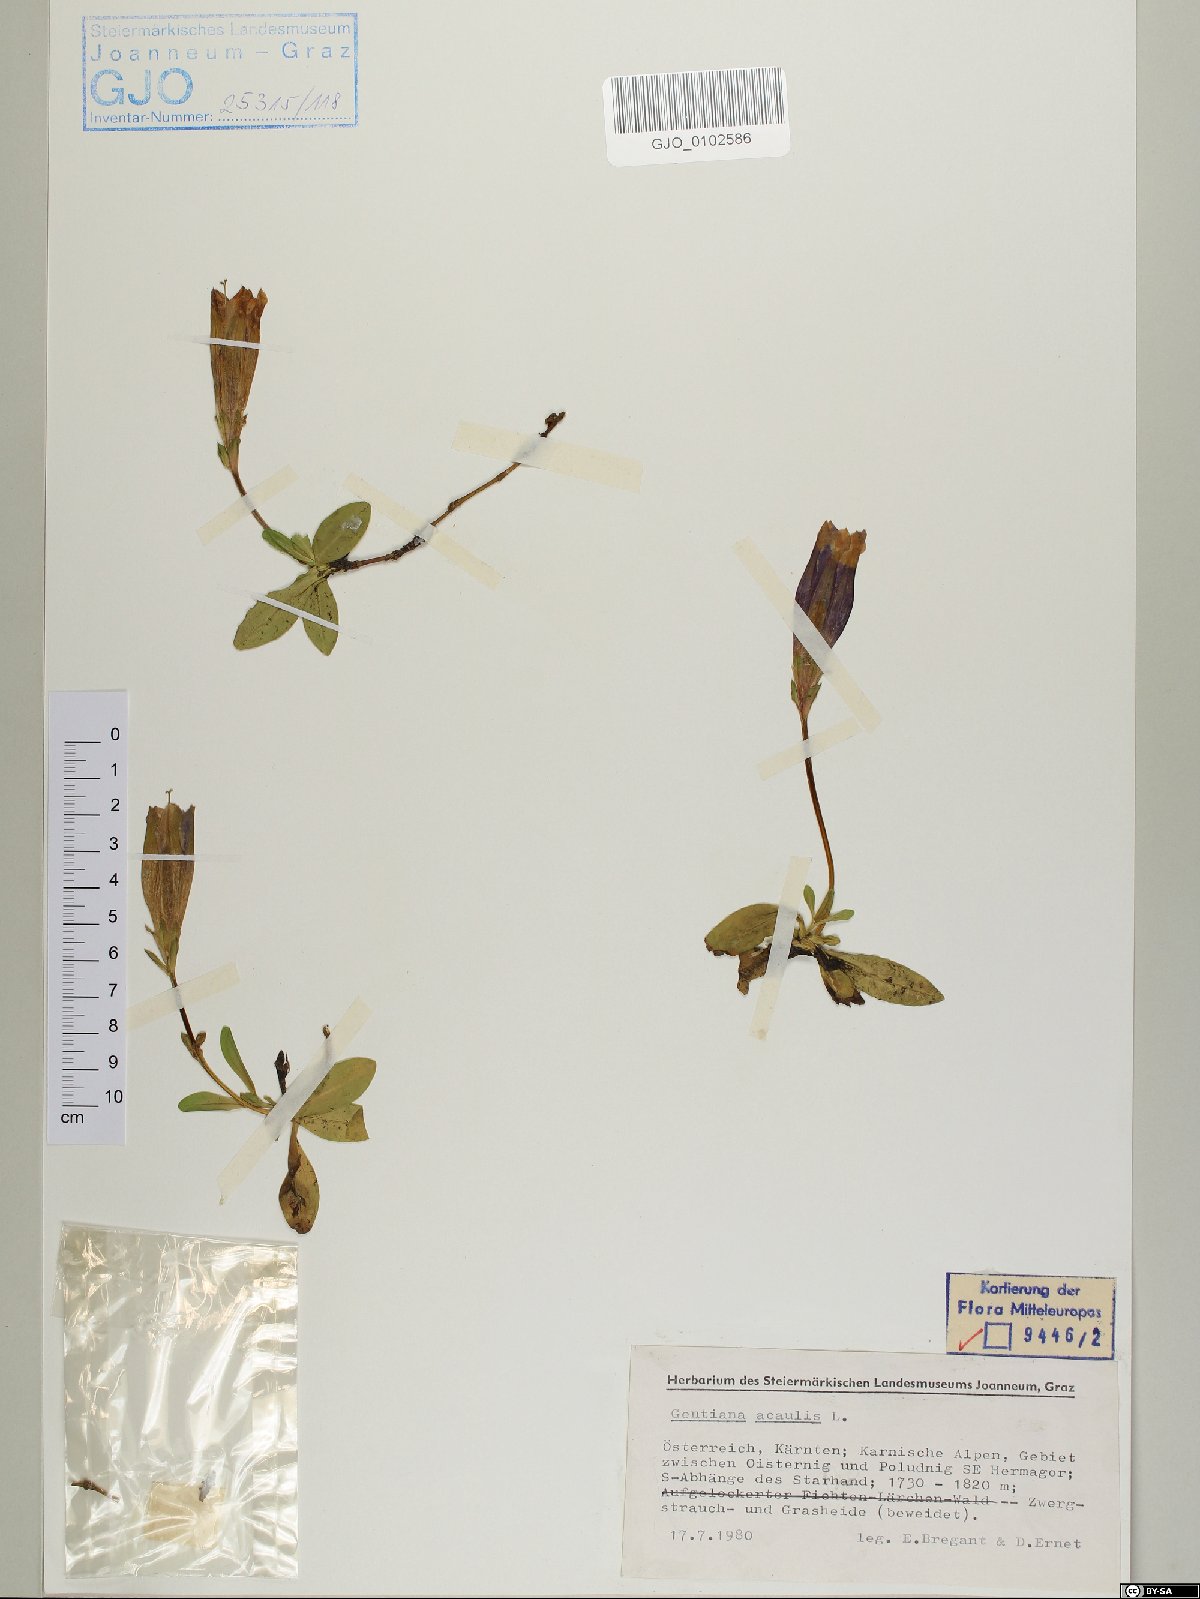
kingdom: Plantae
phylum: Tracheophyta
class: Magnoliopsida
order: Gentianales
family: Gentianaceae
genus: Gentiana
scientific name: Gentiana acaulis
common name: Trumpet gentian
